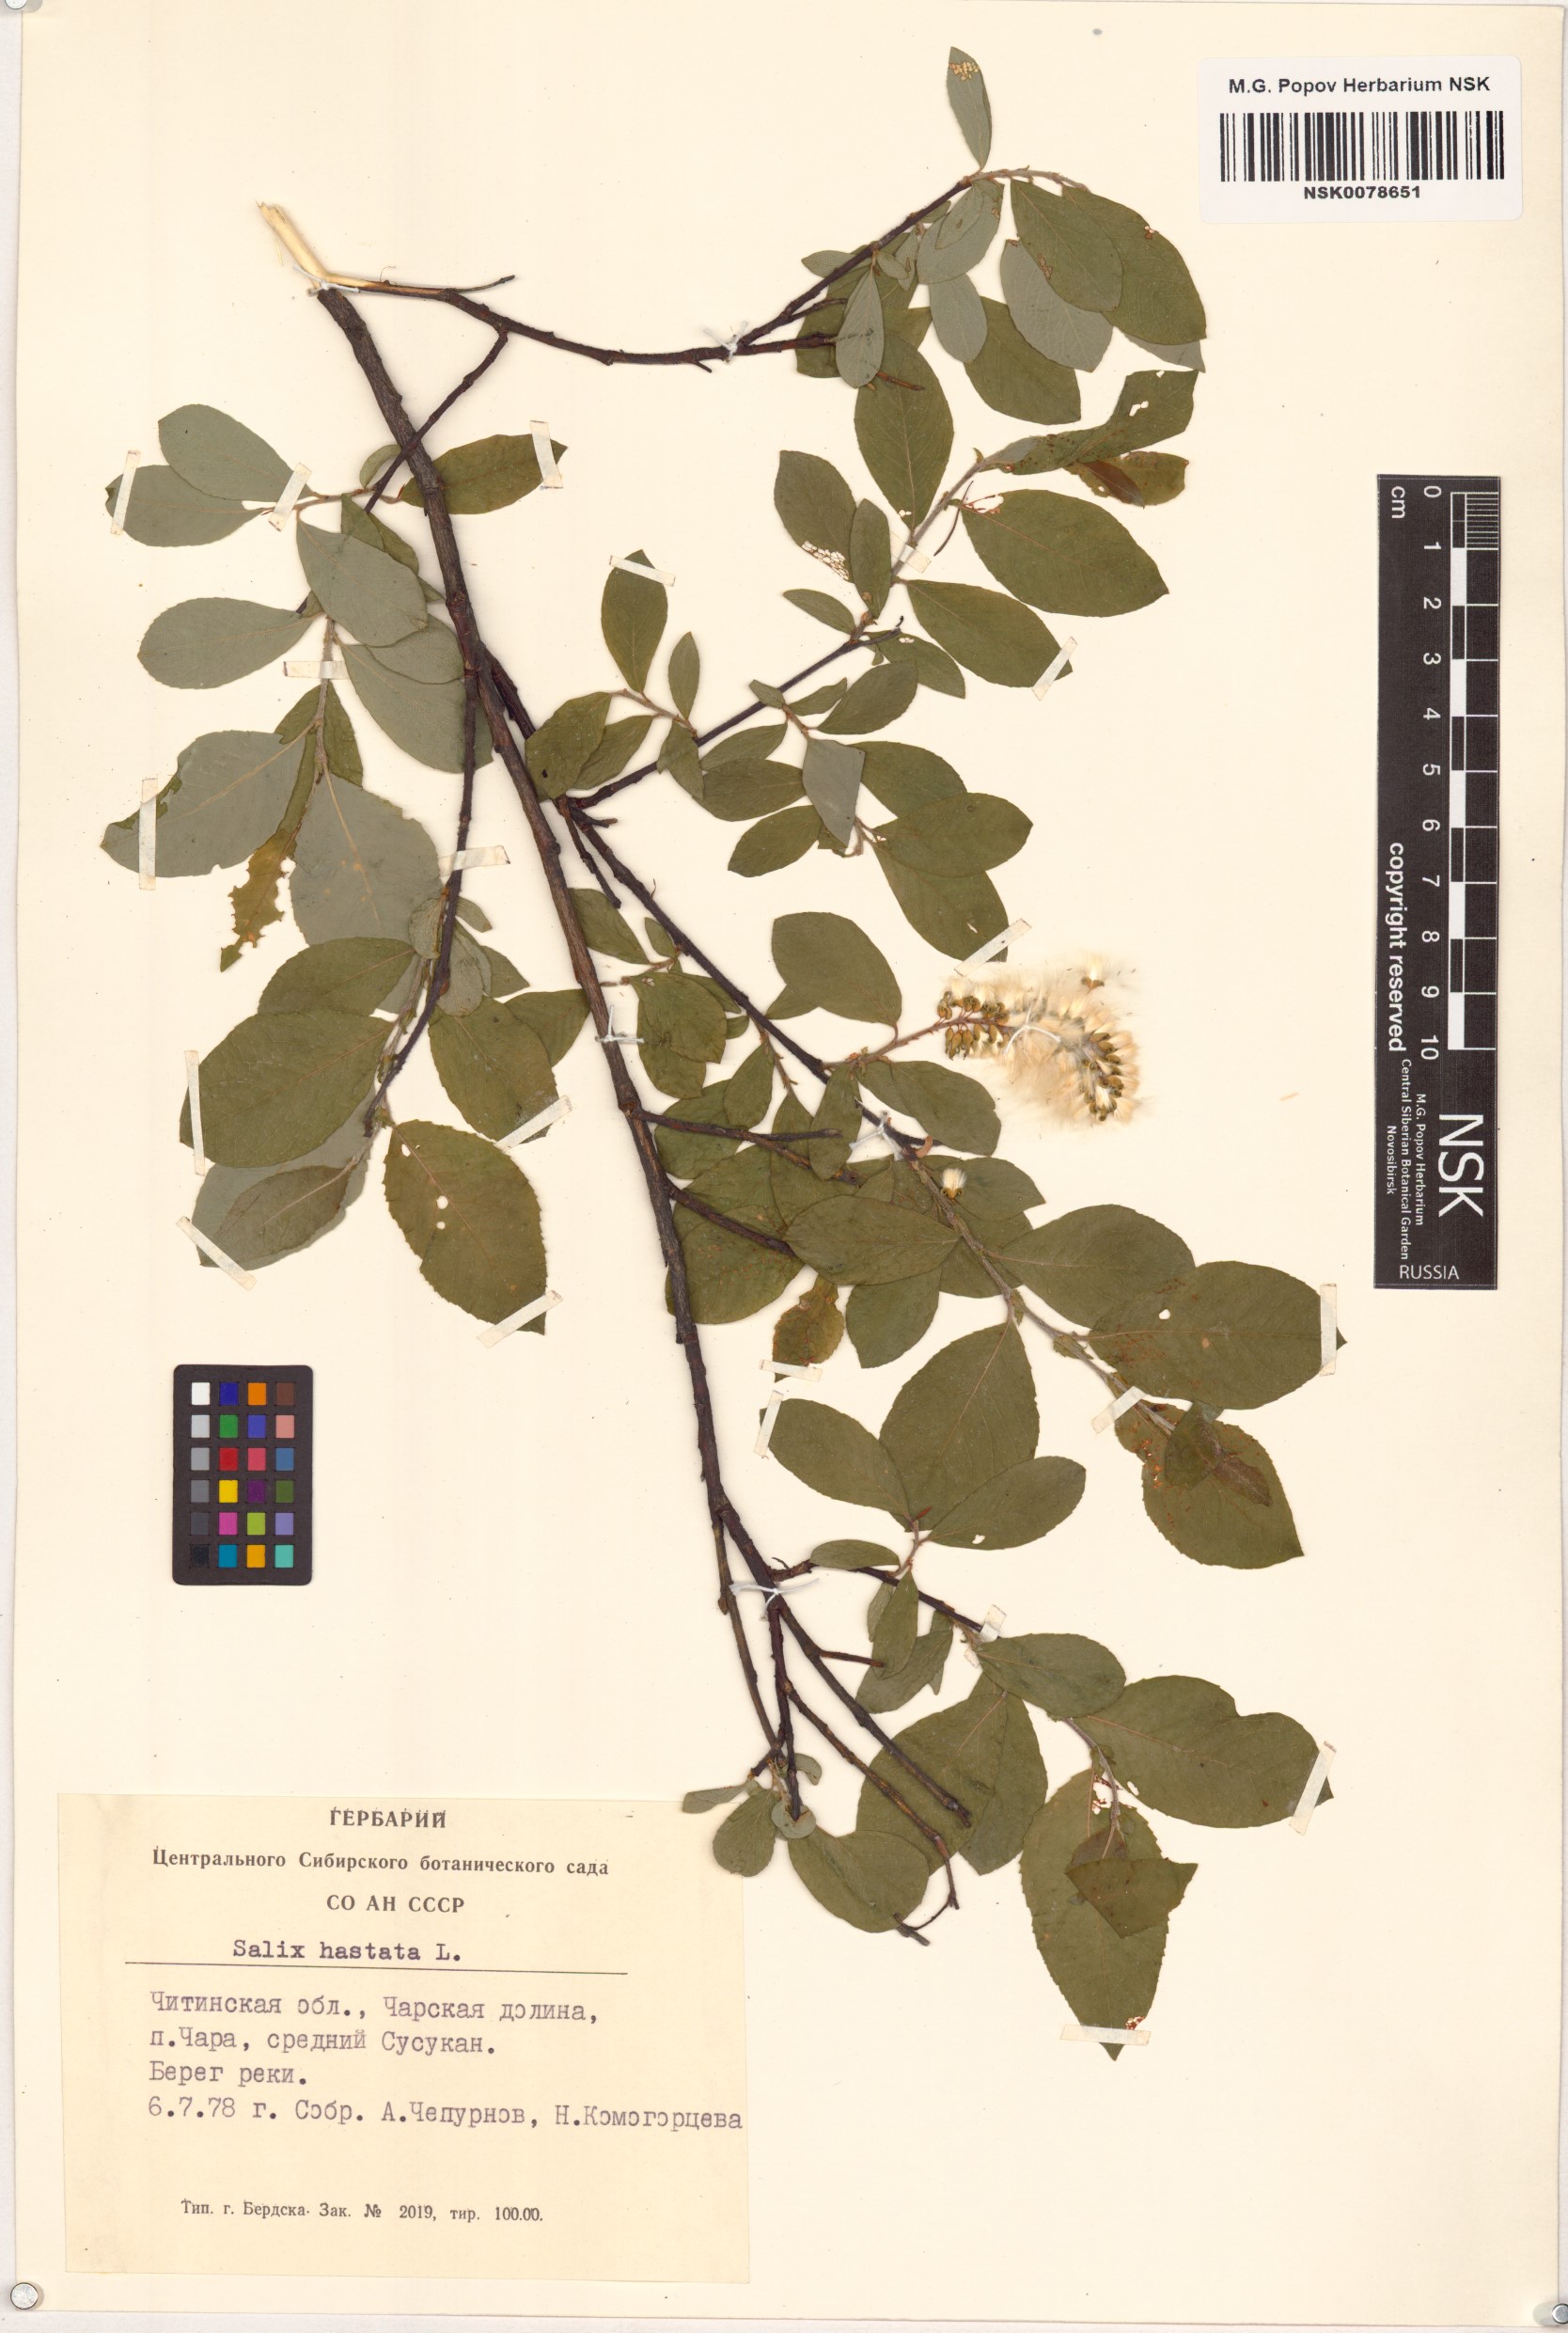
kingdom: Plantae
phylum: Tracheophyta
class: Magnoliopsida
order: Malpighiales
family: Salicaceae
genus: Salix
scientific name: Salix hastata
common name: Halberd willow
